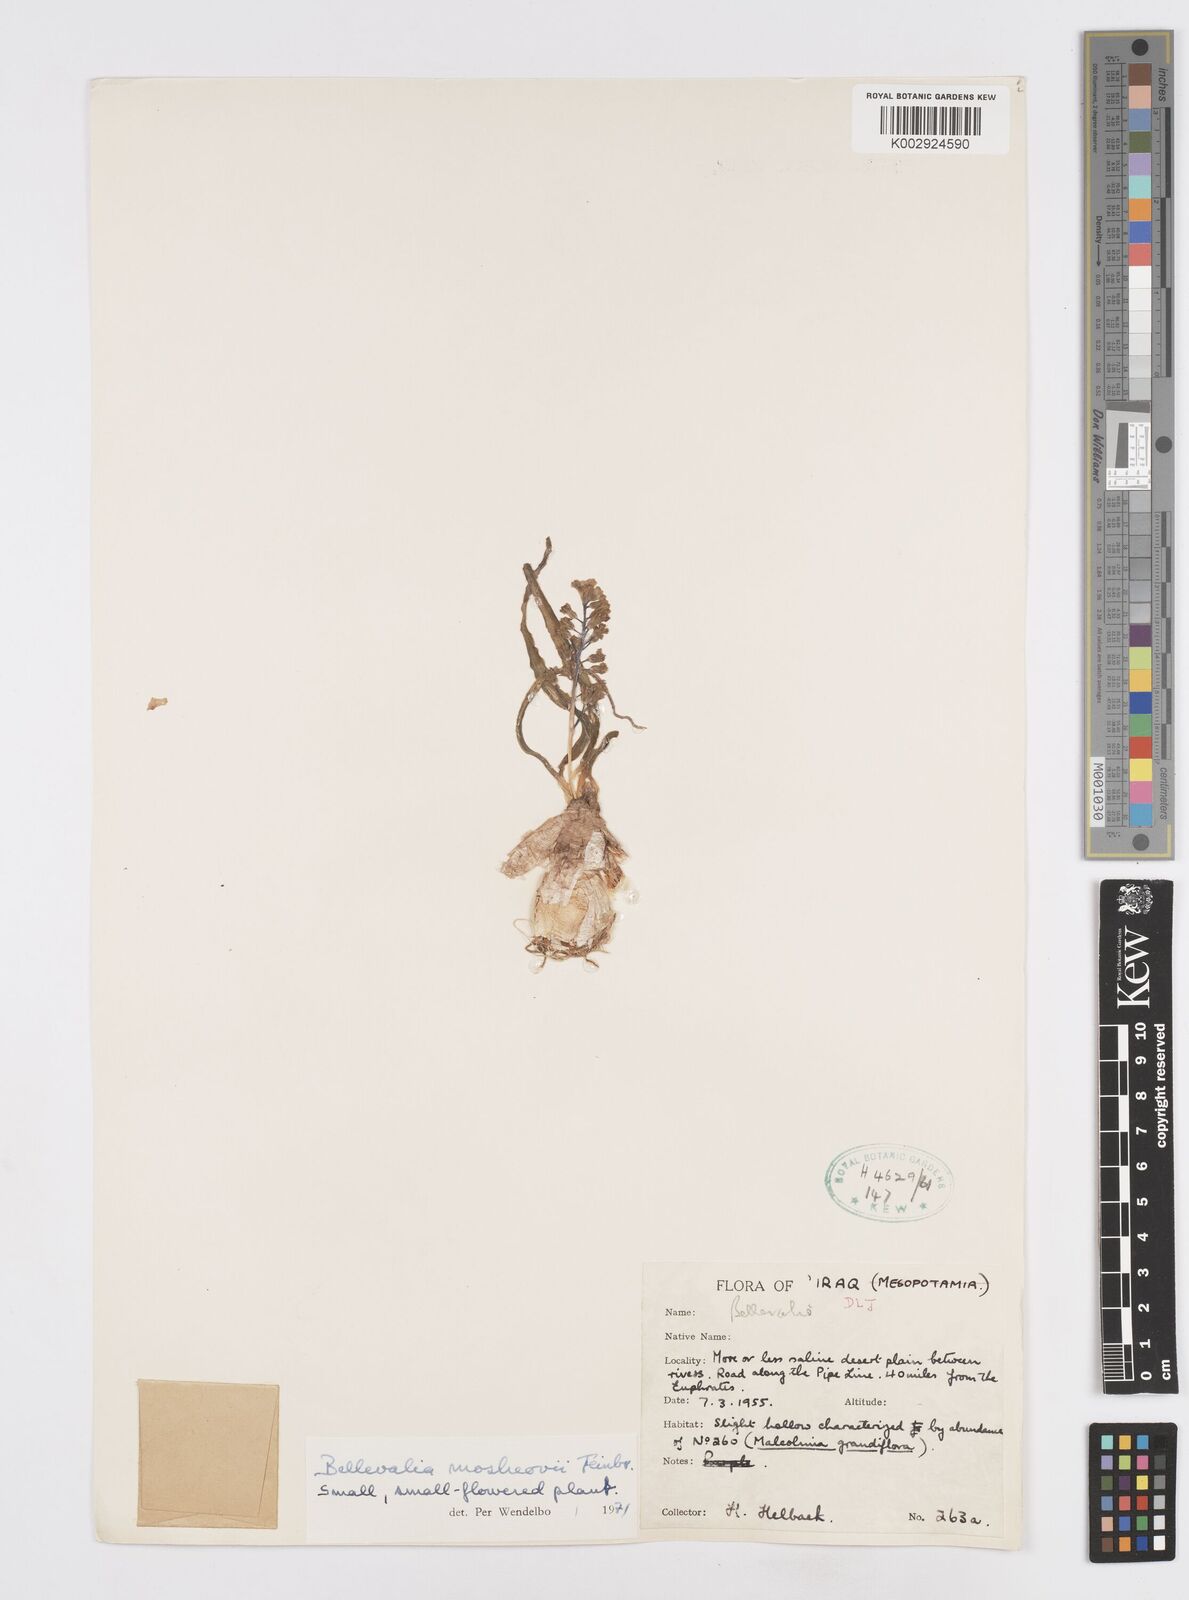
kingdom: Plantae
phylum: Tracheophyta
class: Liliopsida
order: Asparagales
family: Asparagaceae
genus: Bellevalia
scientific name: Bellevalia mosheovii
